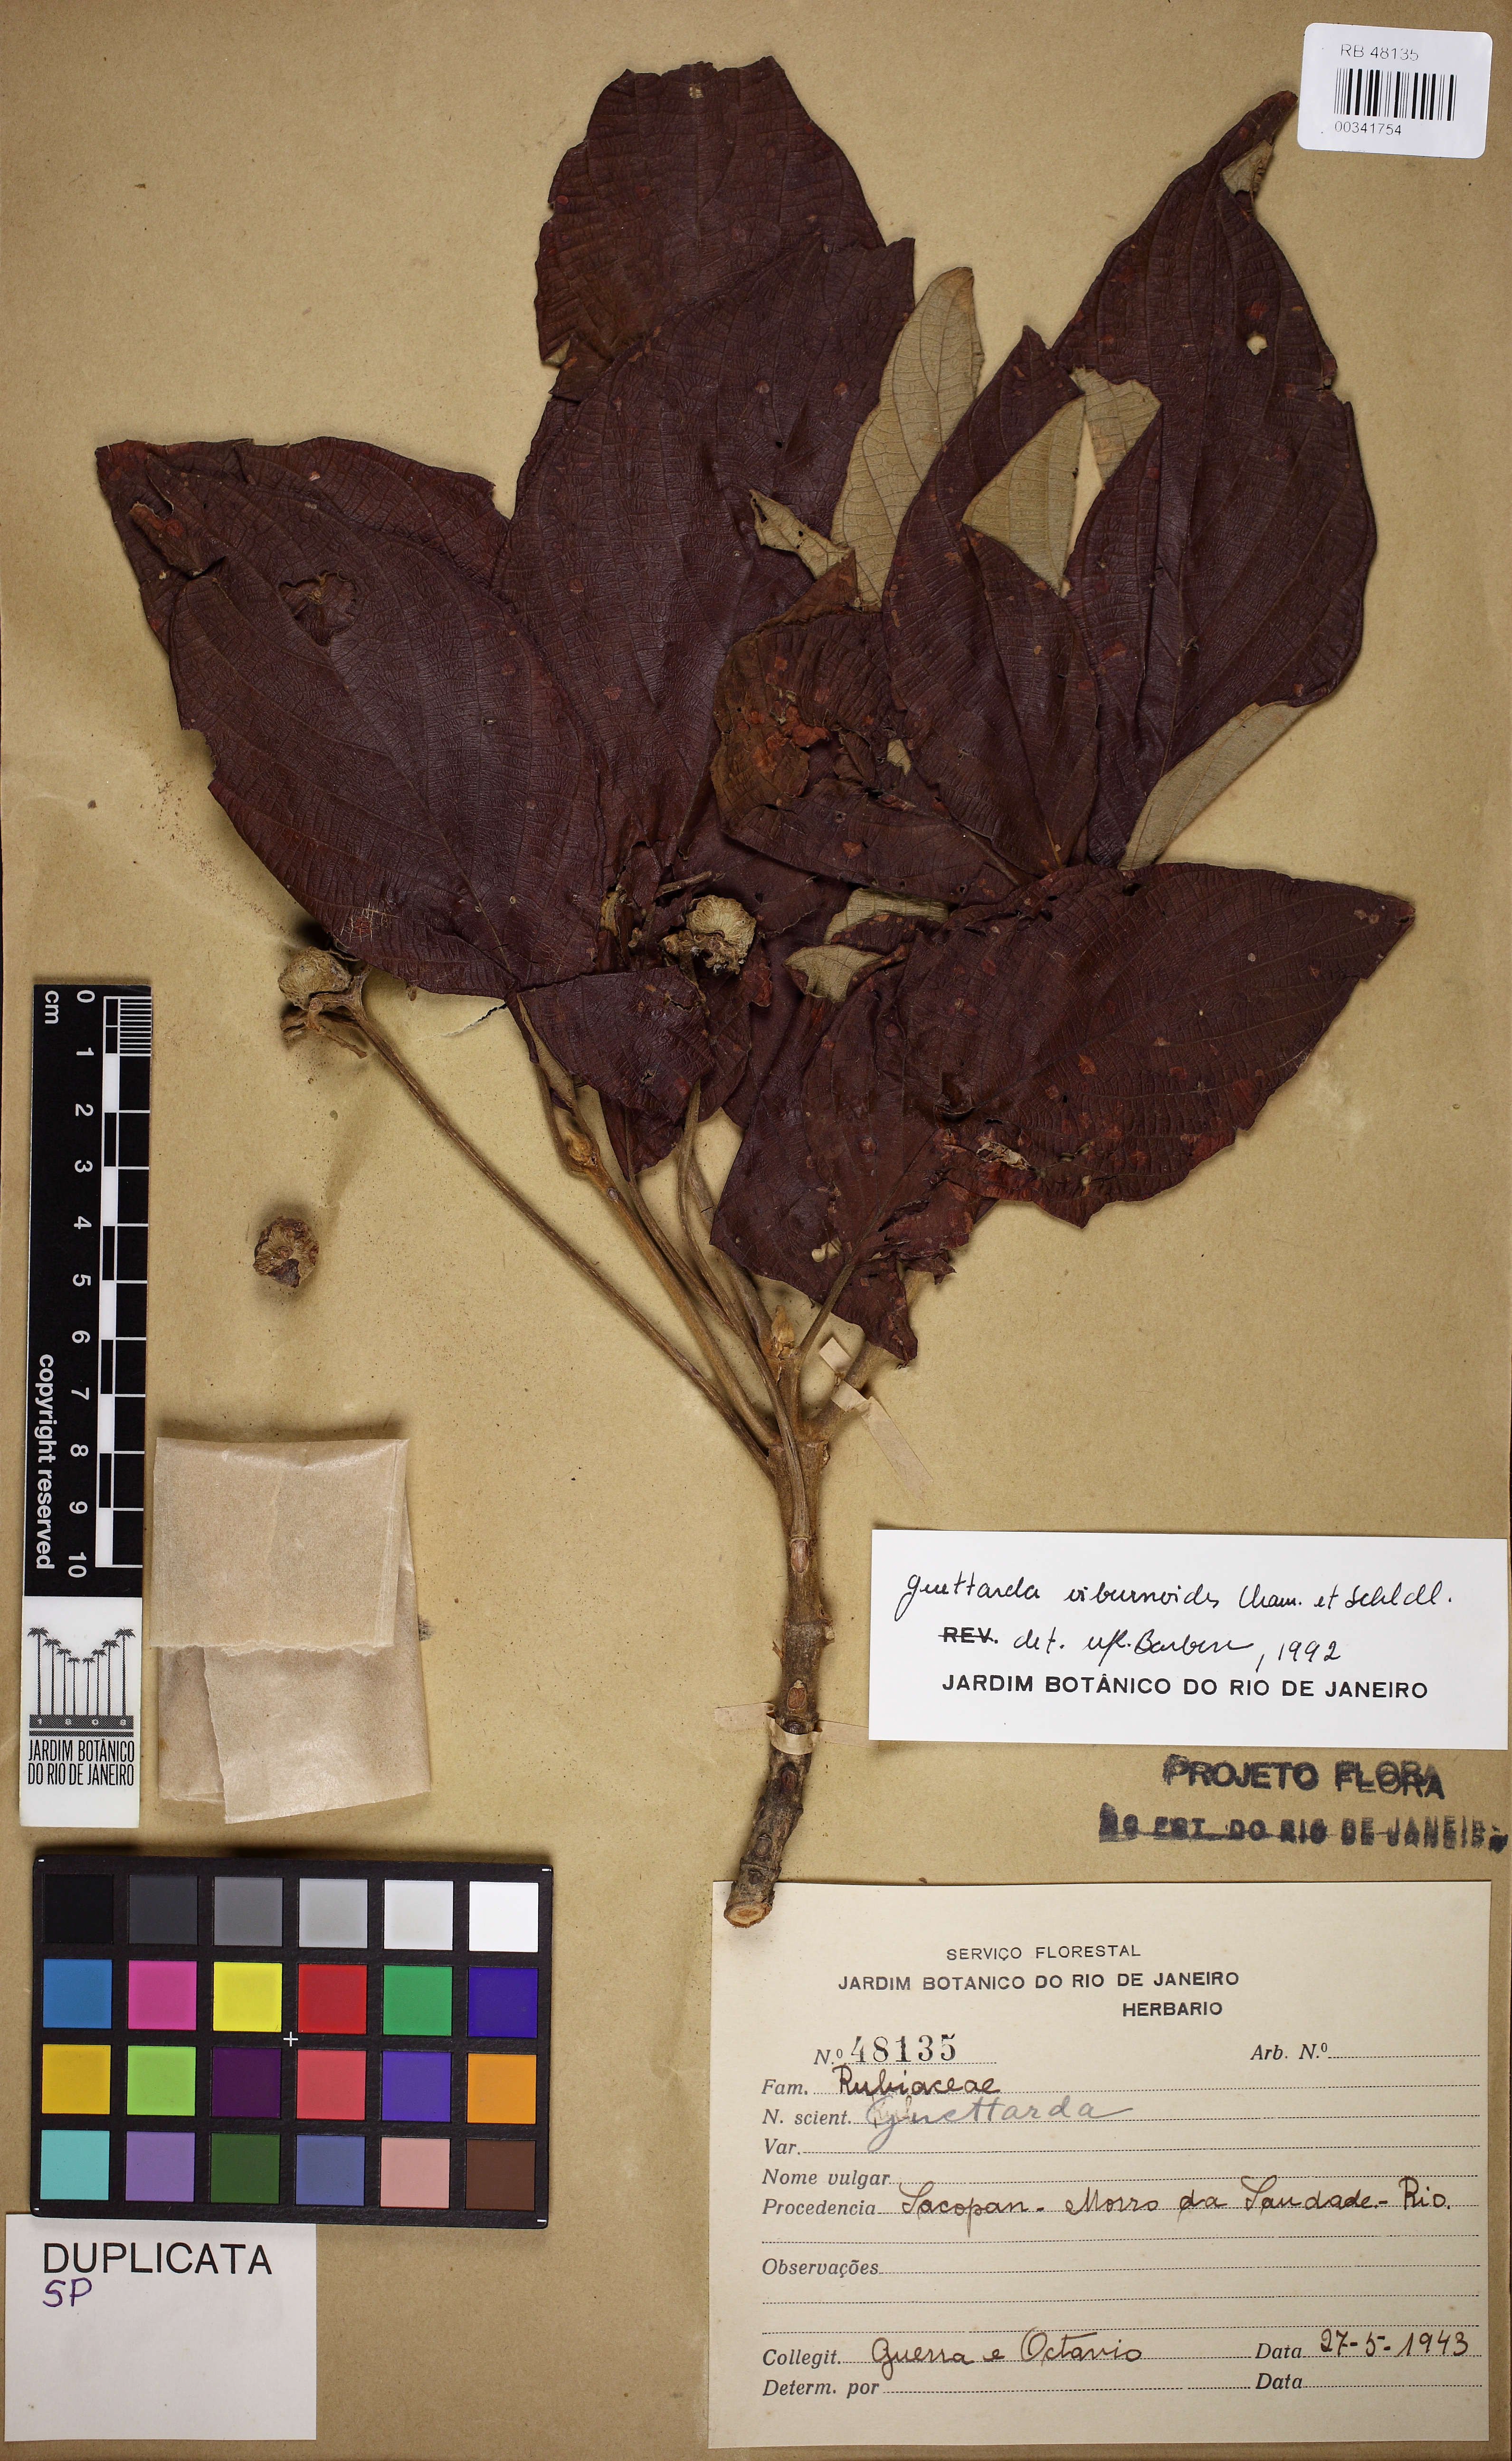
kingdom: Plantae
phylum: Tracheophyta
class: Magnoliopsida
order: Gentianales
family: Rubiaceae
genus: Guettarda
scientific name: Guettarda viburnoides
